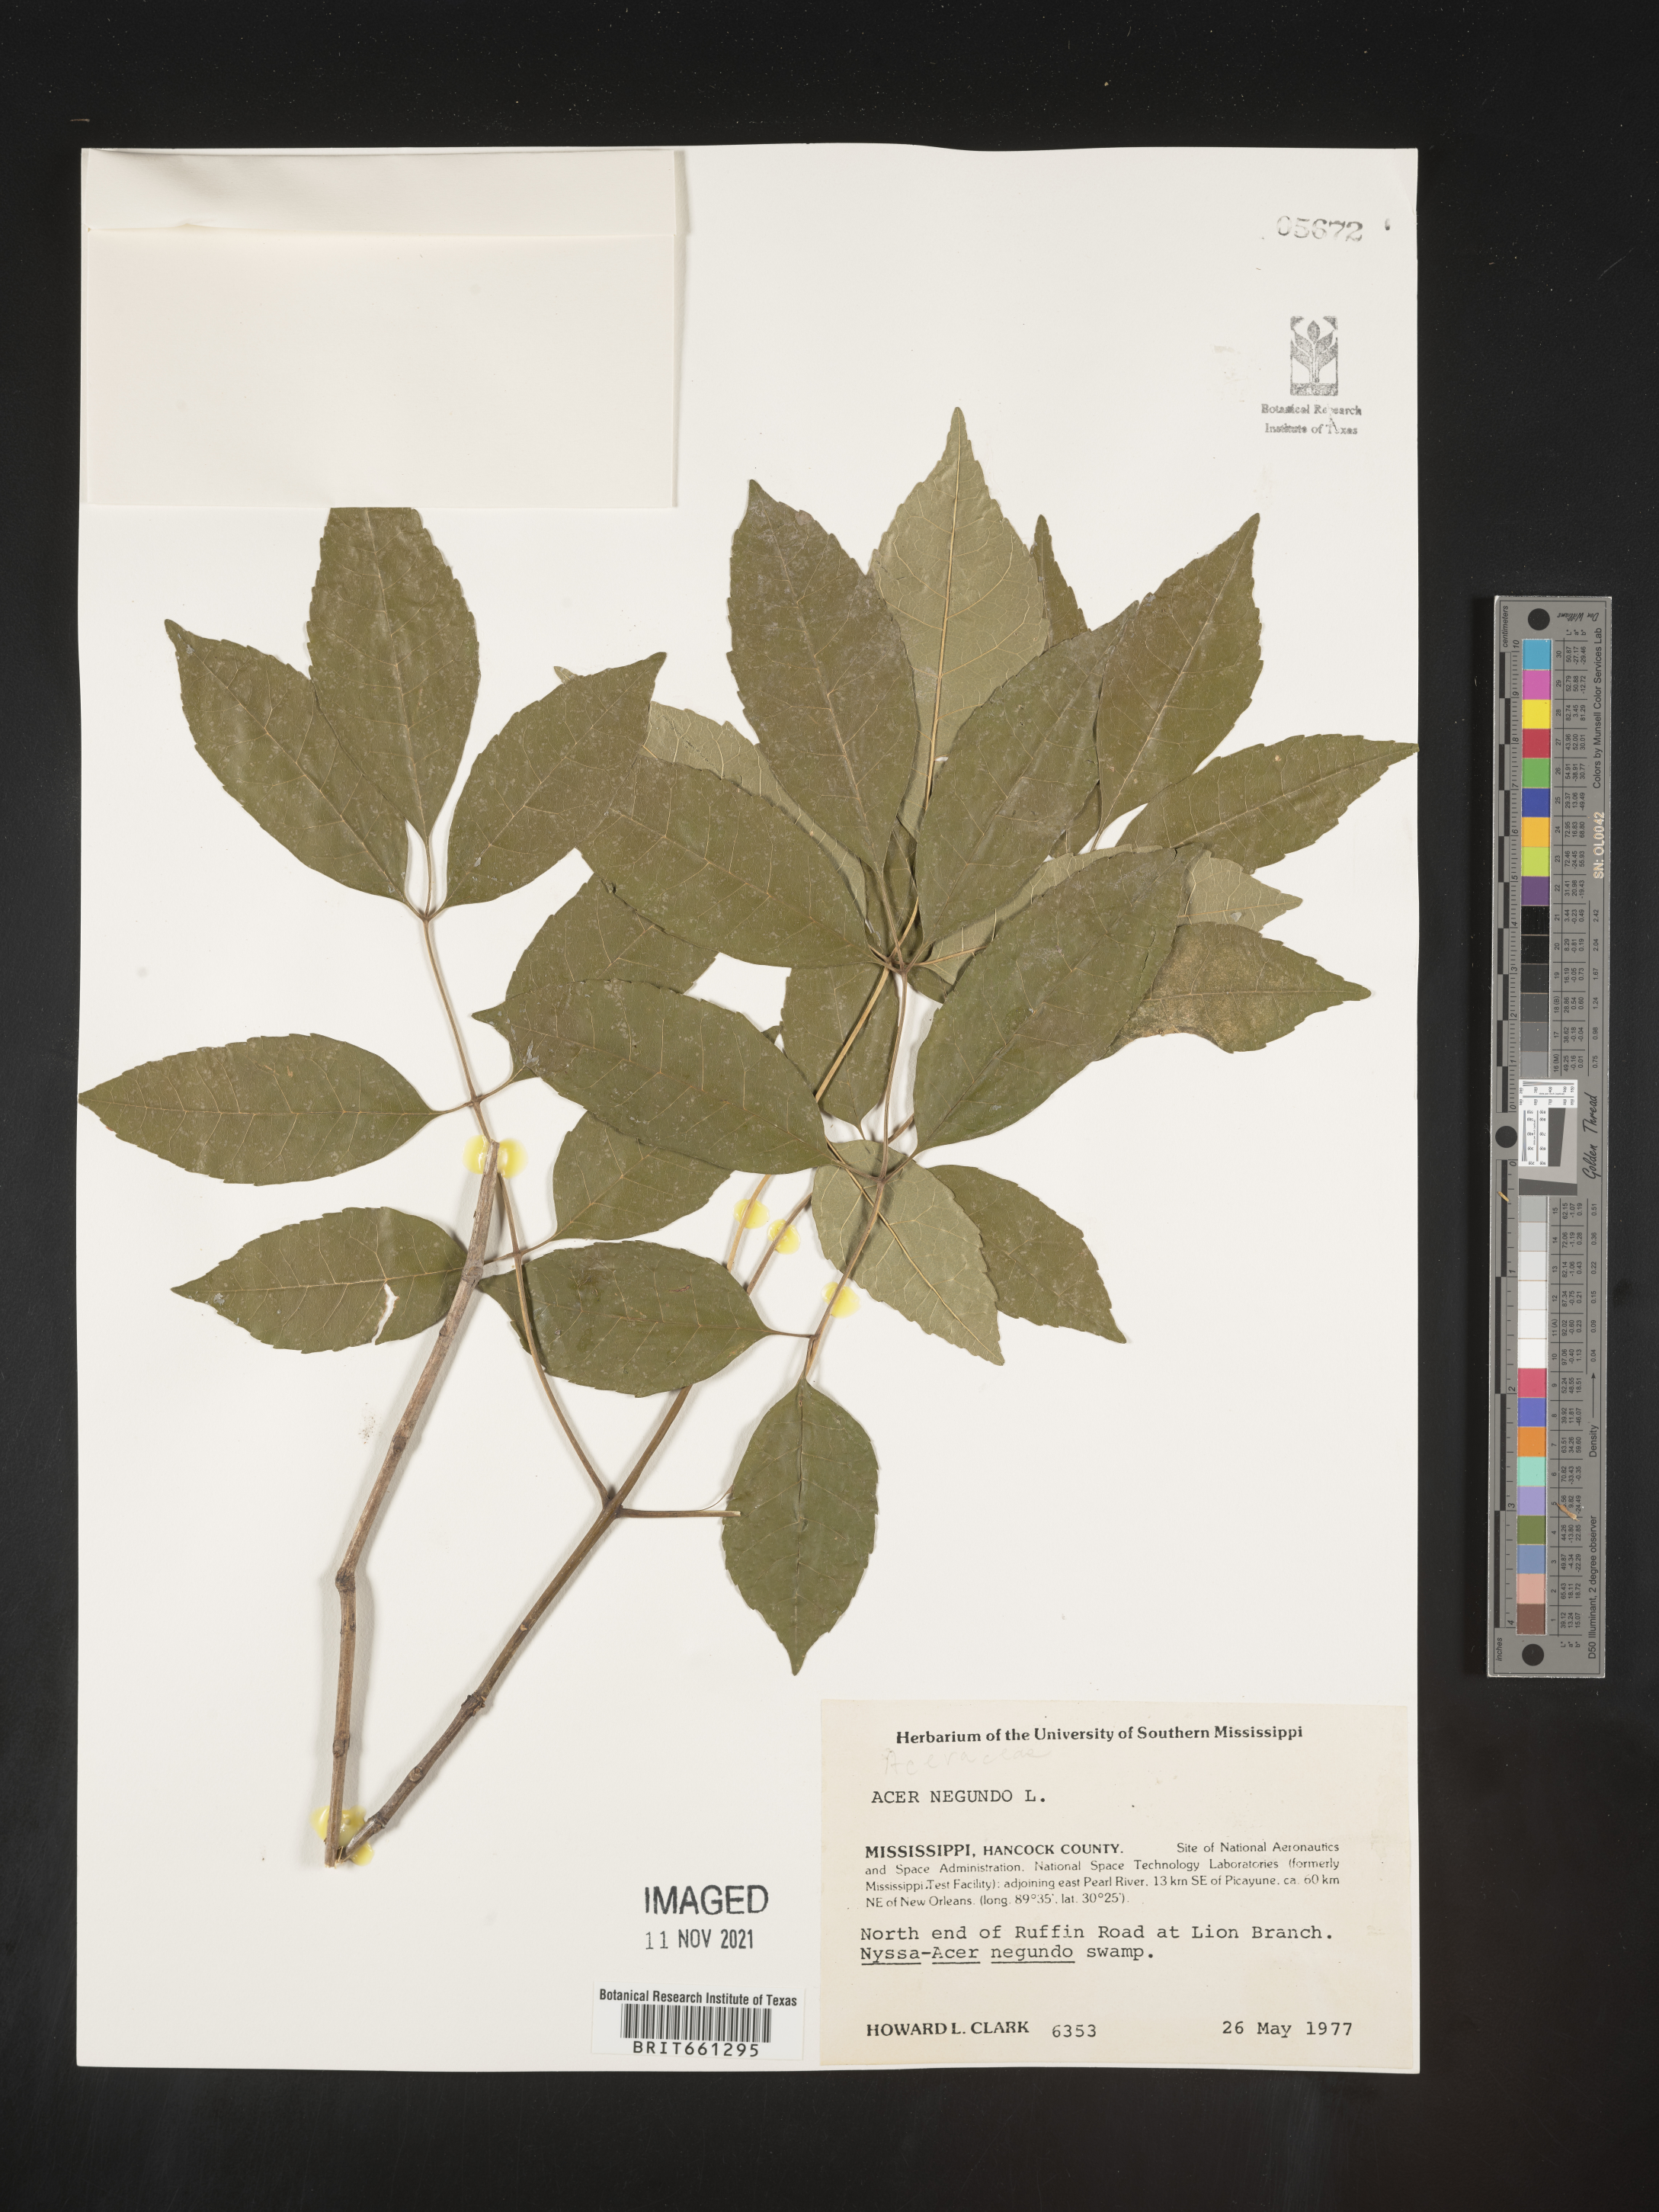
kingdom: Plantae
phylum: Tracheophyta
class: Magnoliopsida
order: Sapindales
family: Sapindaceae
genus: Acer
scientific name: Acer negundo
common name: Ashleaf maple
